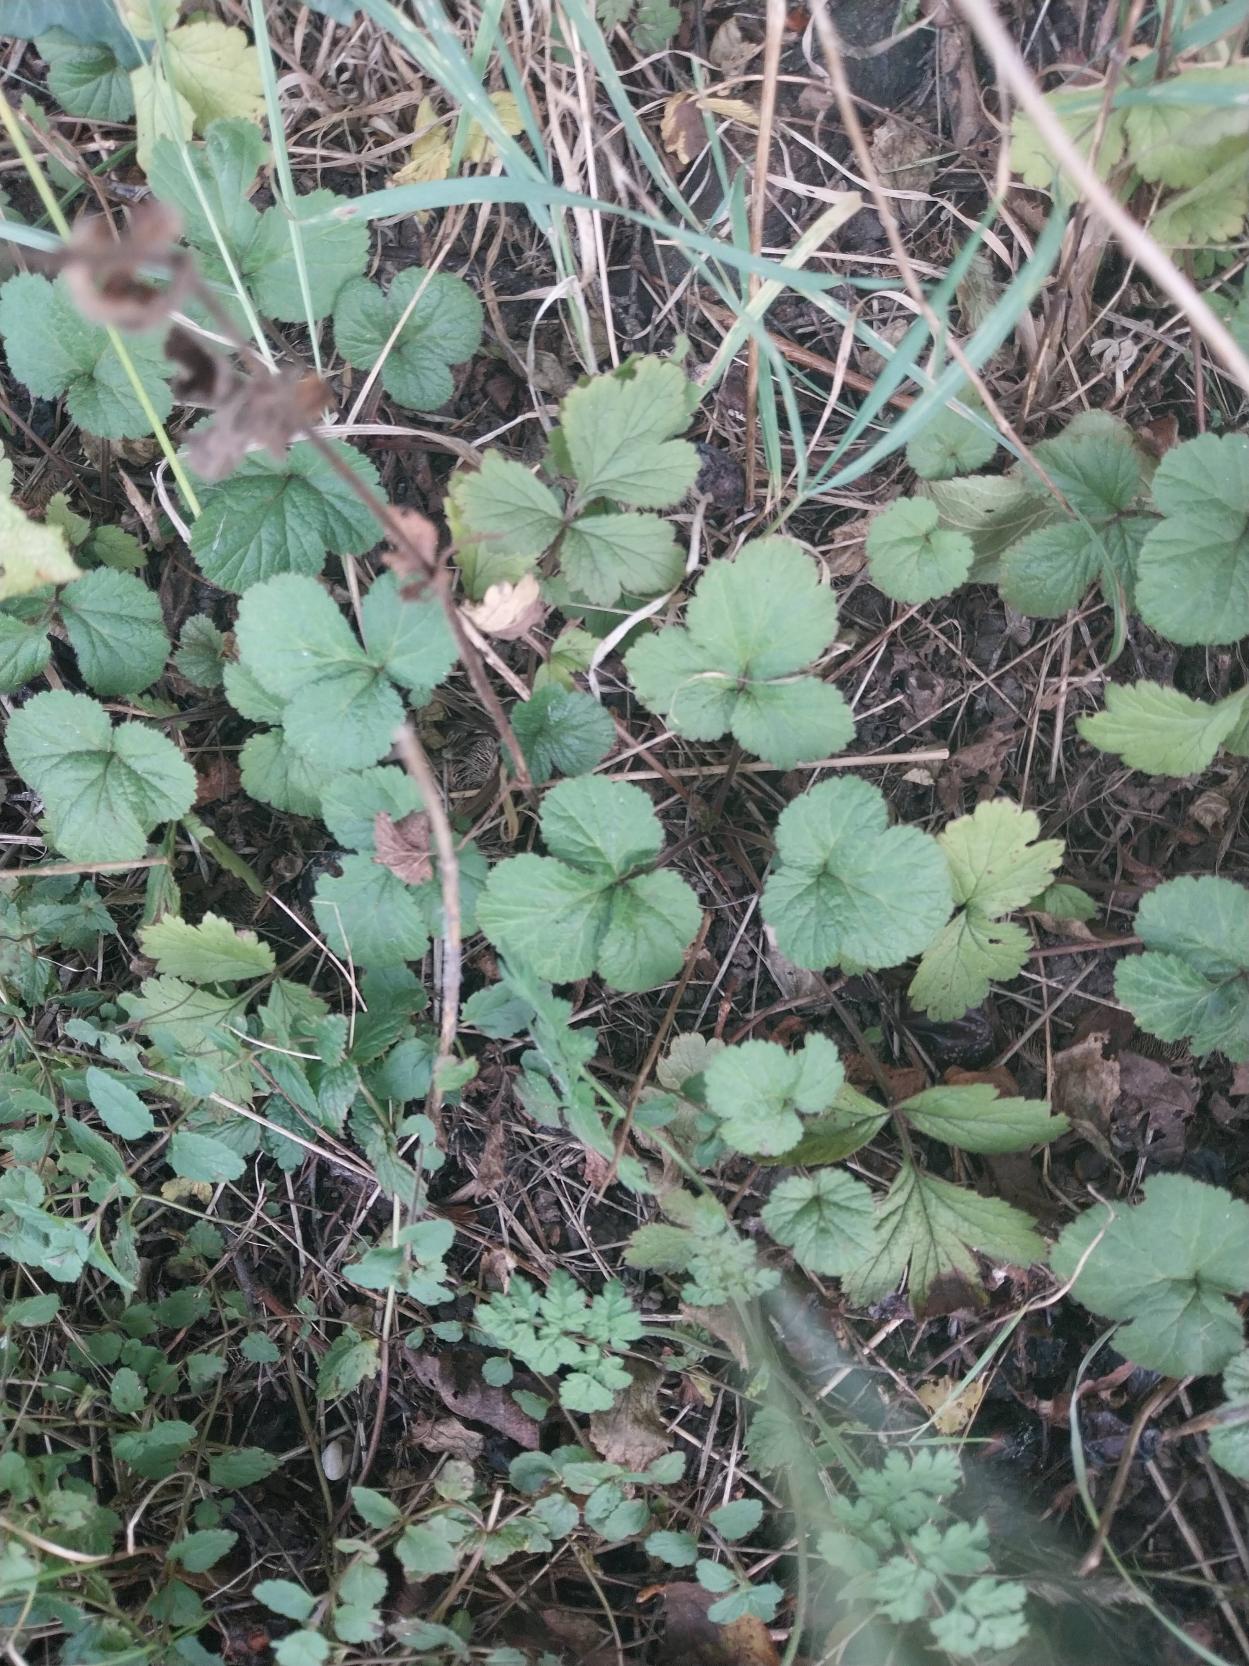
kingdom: Plantae
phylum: Tracheophyta
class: Magnoliopsida
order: Rosales
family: Rosaceae
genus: Geum
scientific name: Geum urbanum
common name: Feber-nellikerod
